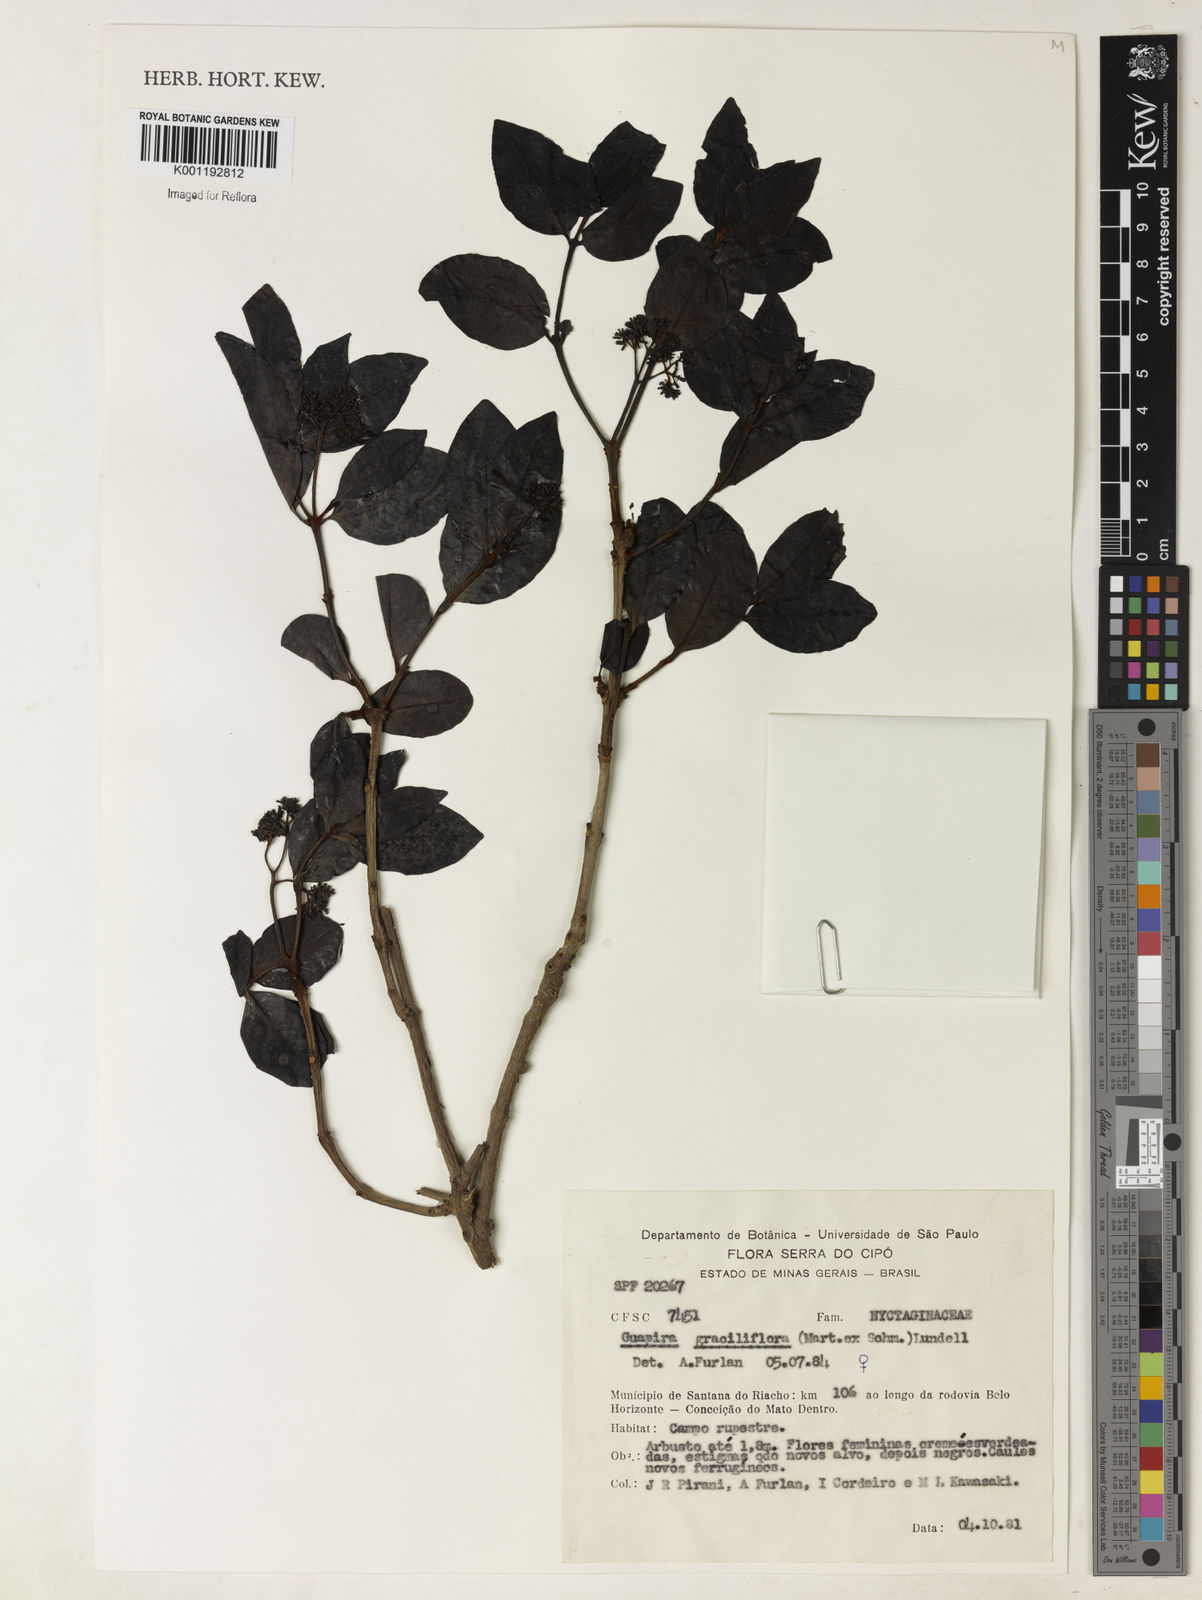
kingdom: Plantae
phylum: Tracheophyta
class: Magnoliopsida
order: Caryophyllales
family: Nyctaginaceae
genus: Guapira
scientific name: Guapira graciliflora
